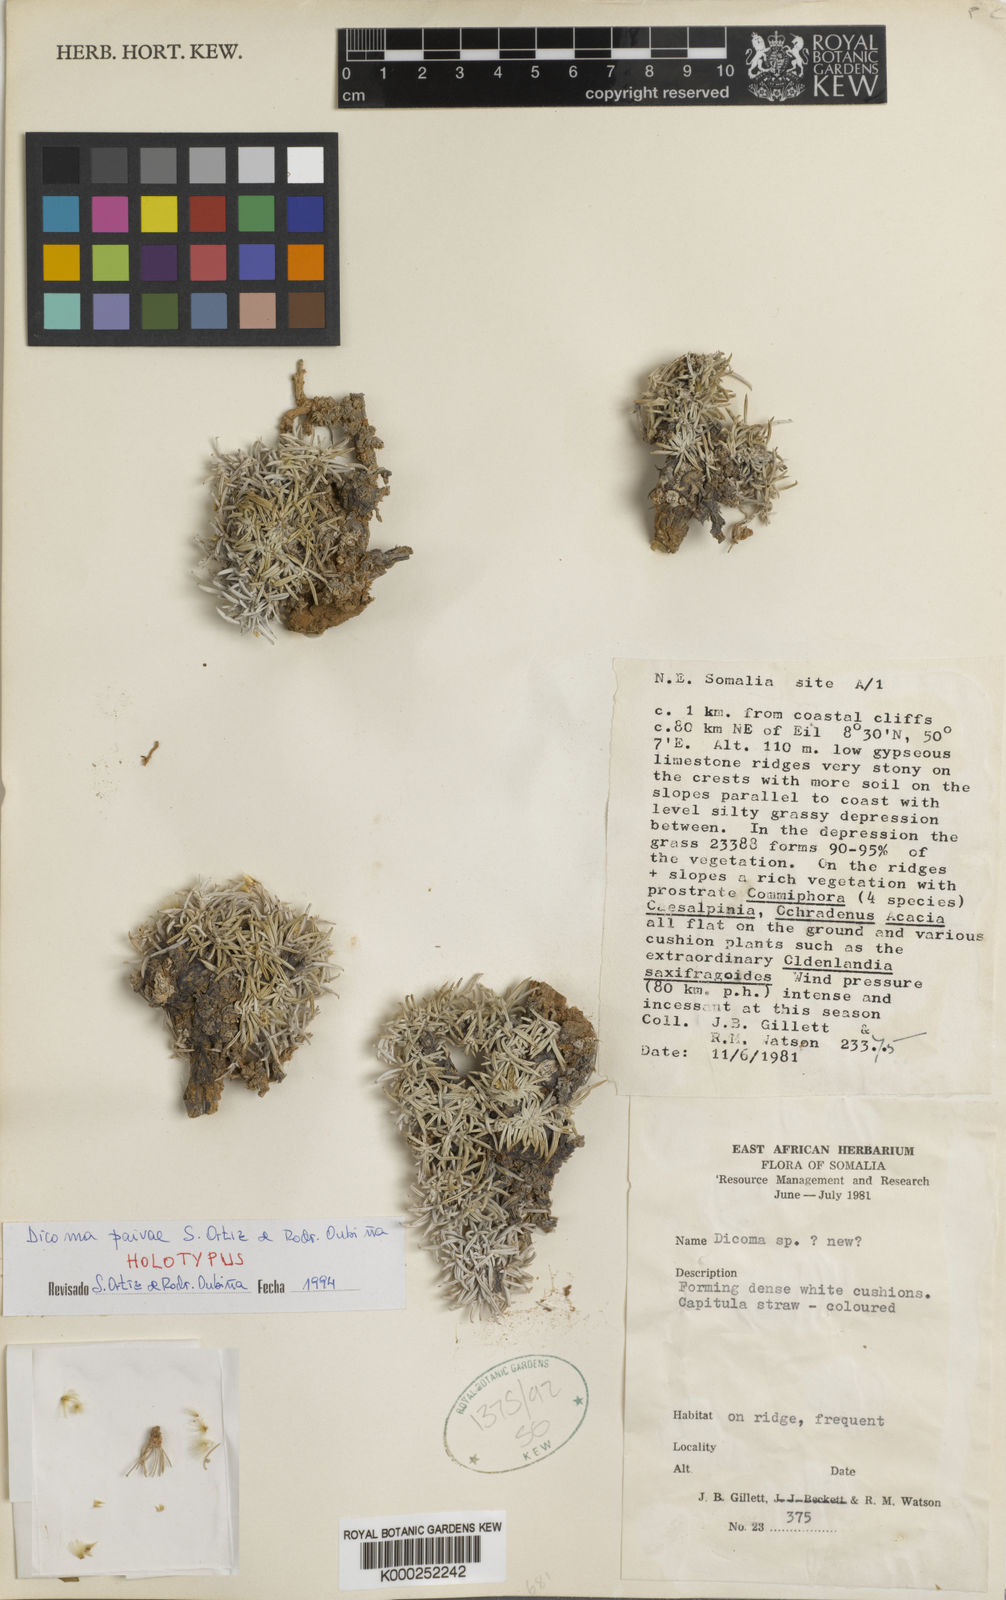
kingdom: Plantae
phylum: Tracheophyta
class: Magnoliopsida
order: Asterales
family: Asteraceae
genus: Dicoma
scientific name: Dicoma
